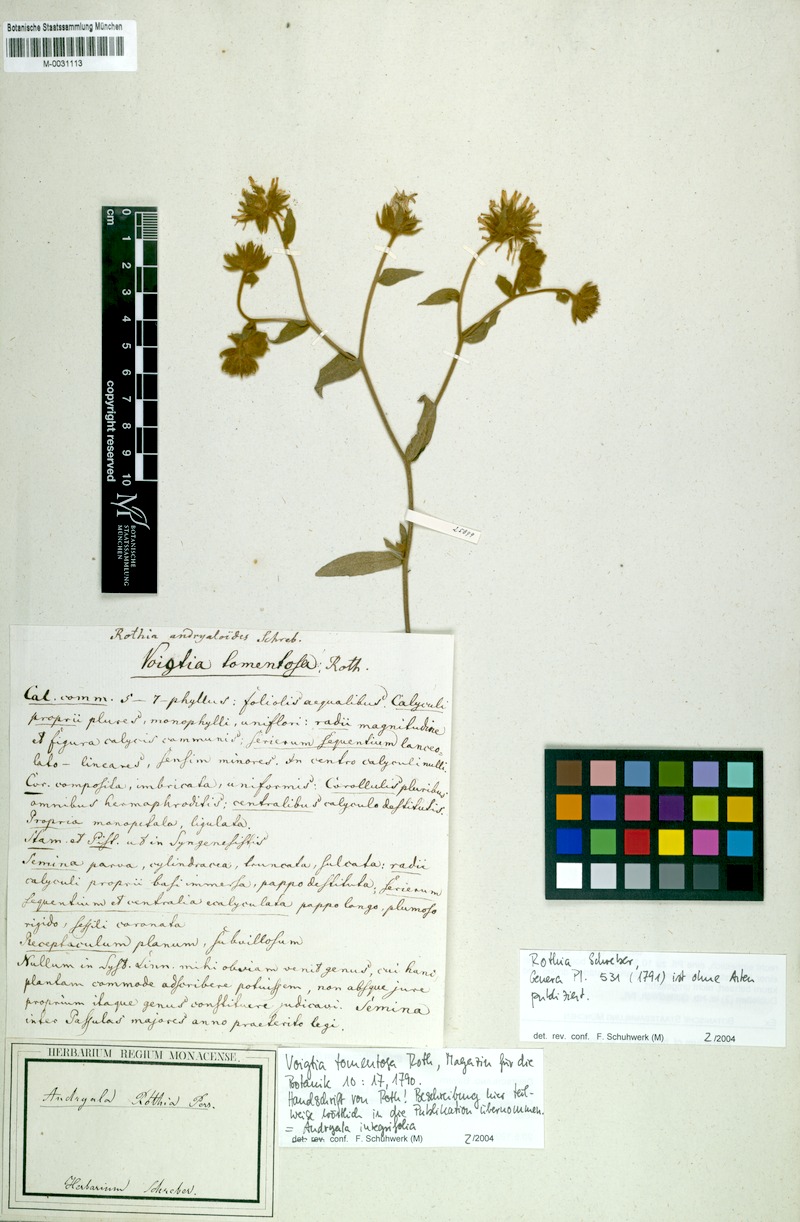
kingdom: Plantae
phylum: Tracheophyta
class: Magnoliopsida
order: Asterales
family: Asteraceae
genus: Andryala
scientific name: Andryala integrifolia
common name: Common andryala
